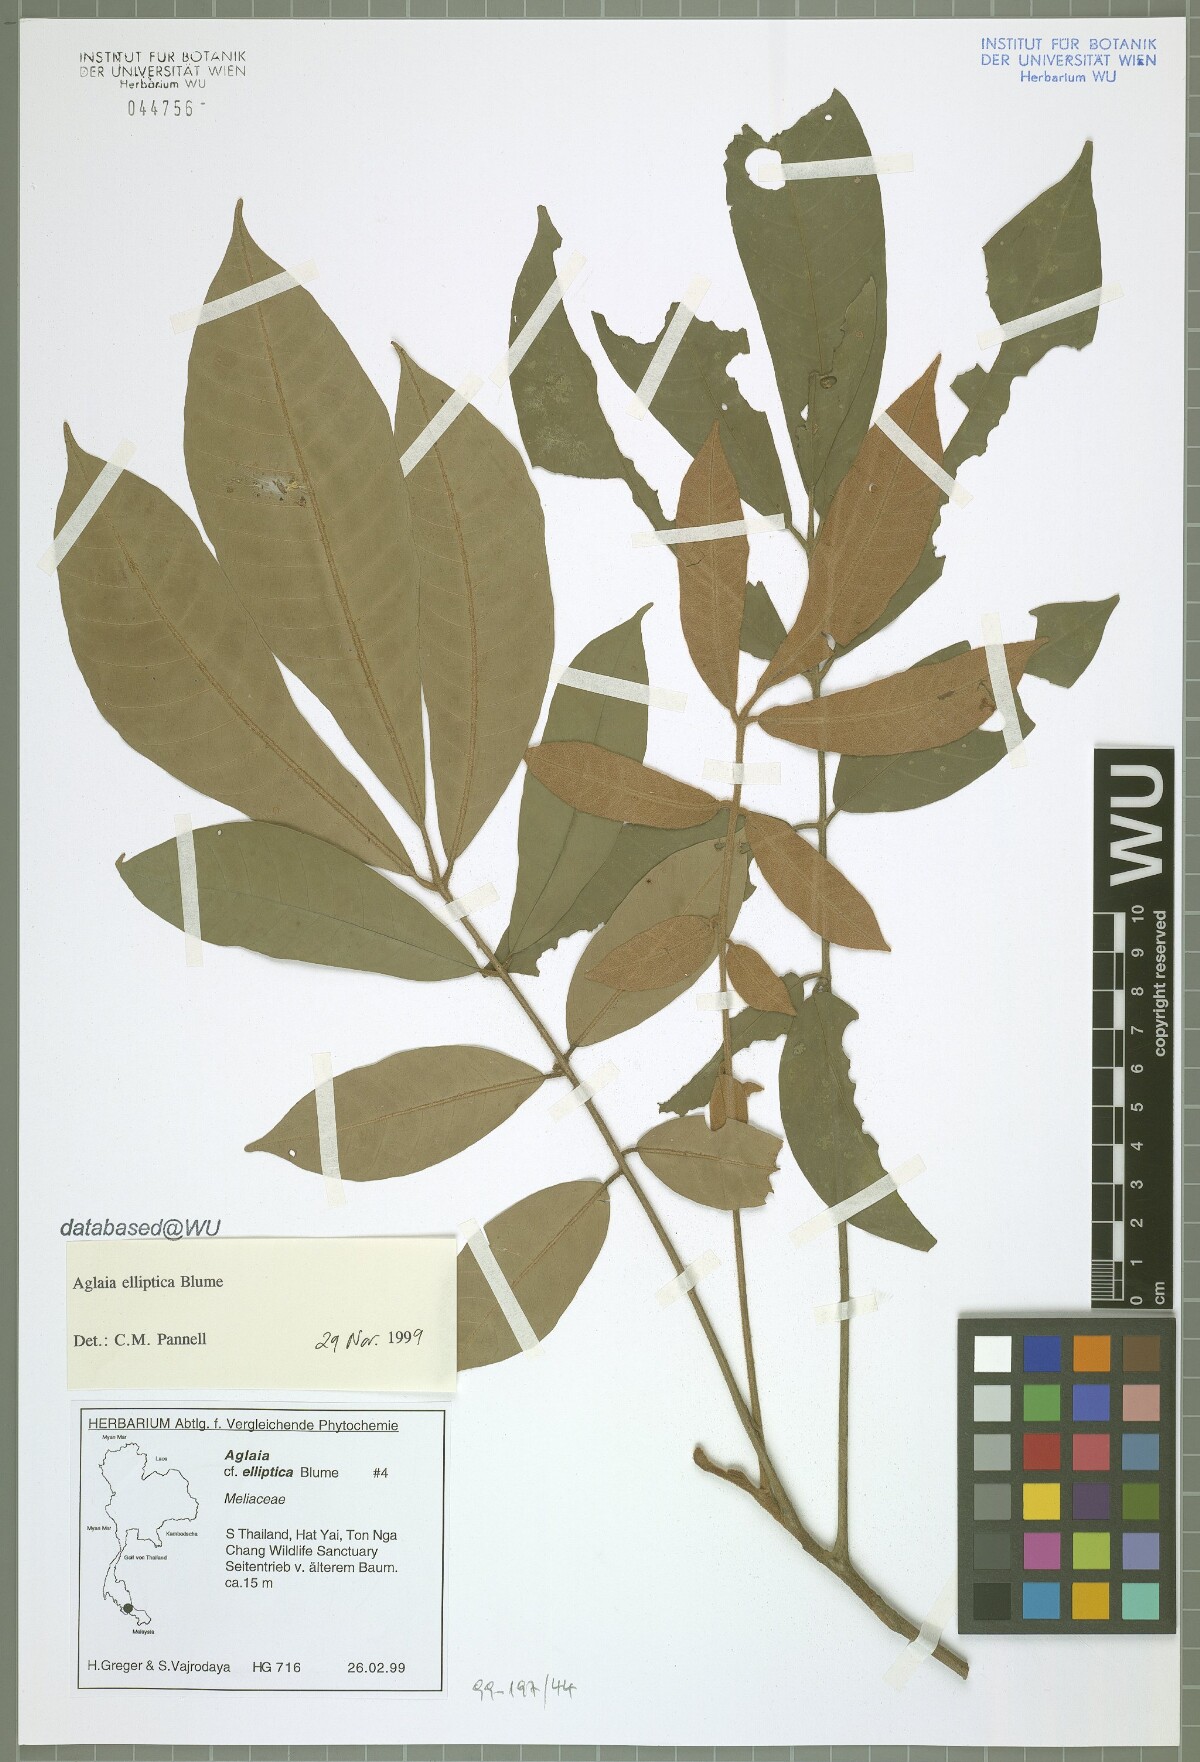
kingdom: Plantae
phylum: Tracheophyta
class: Magnoliopsida
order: Sapindales
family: Meliaceae
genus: Aglaia
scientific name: Aglaia elliptica
